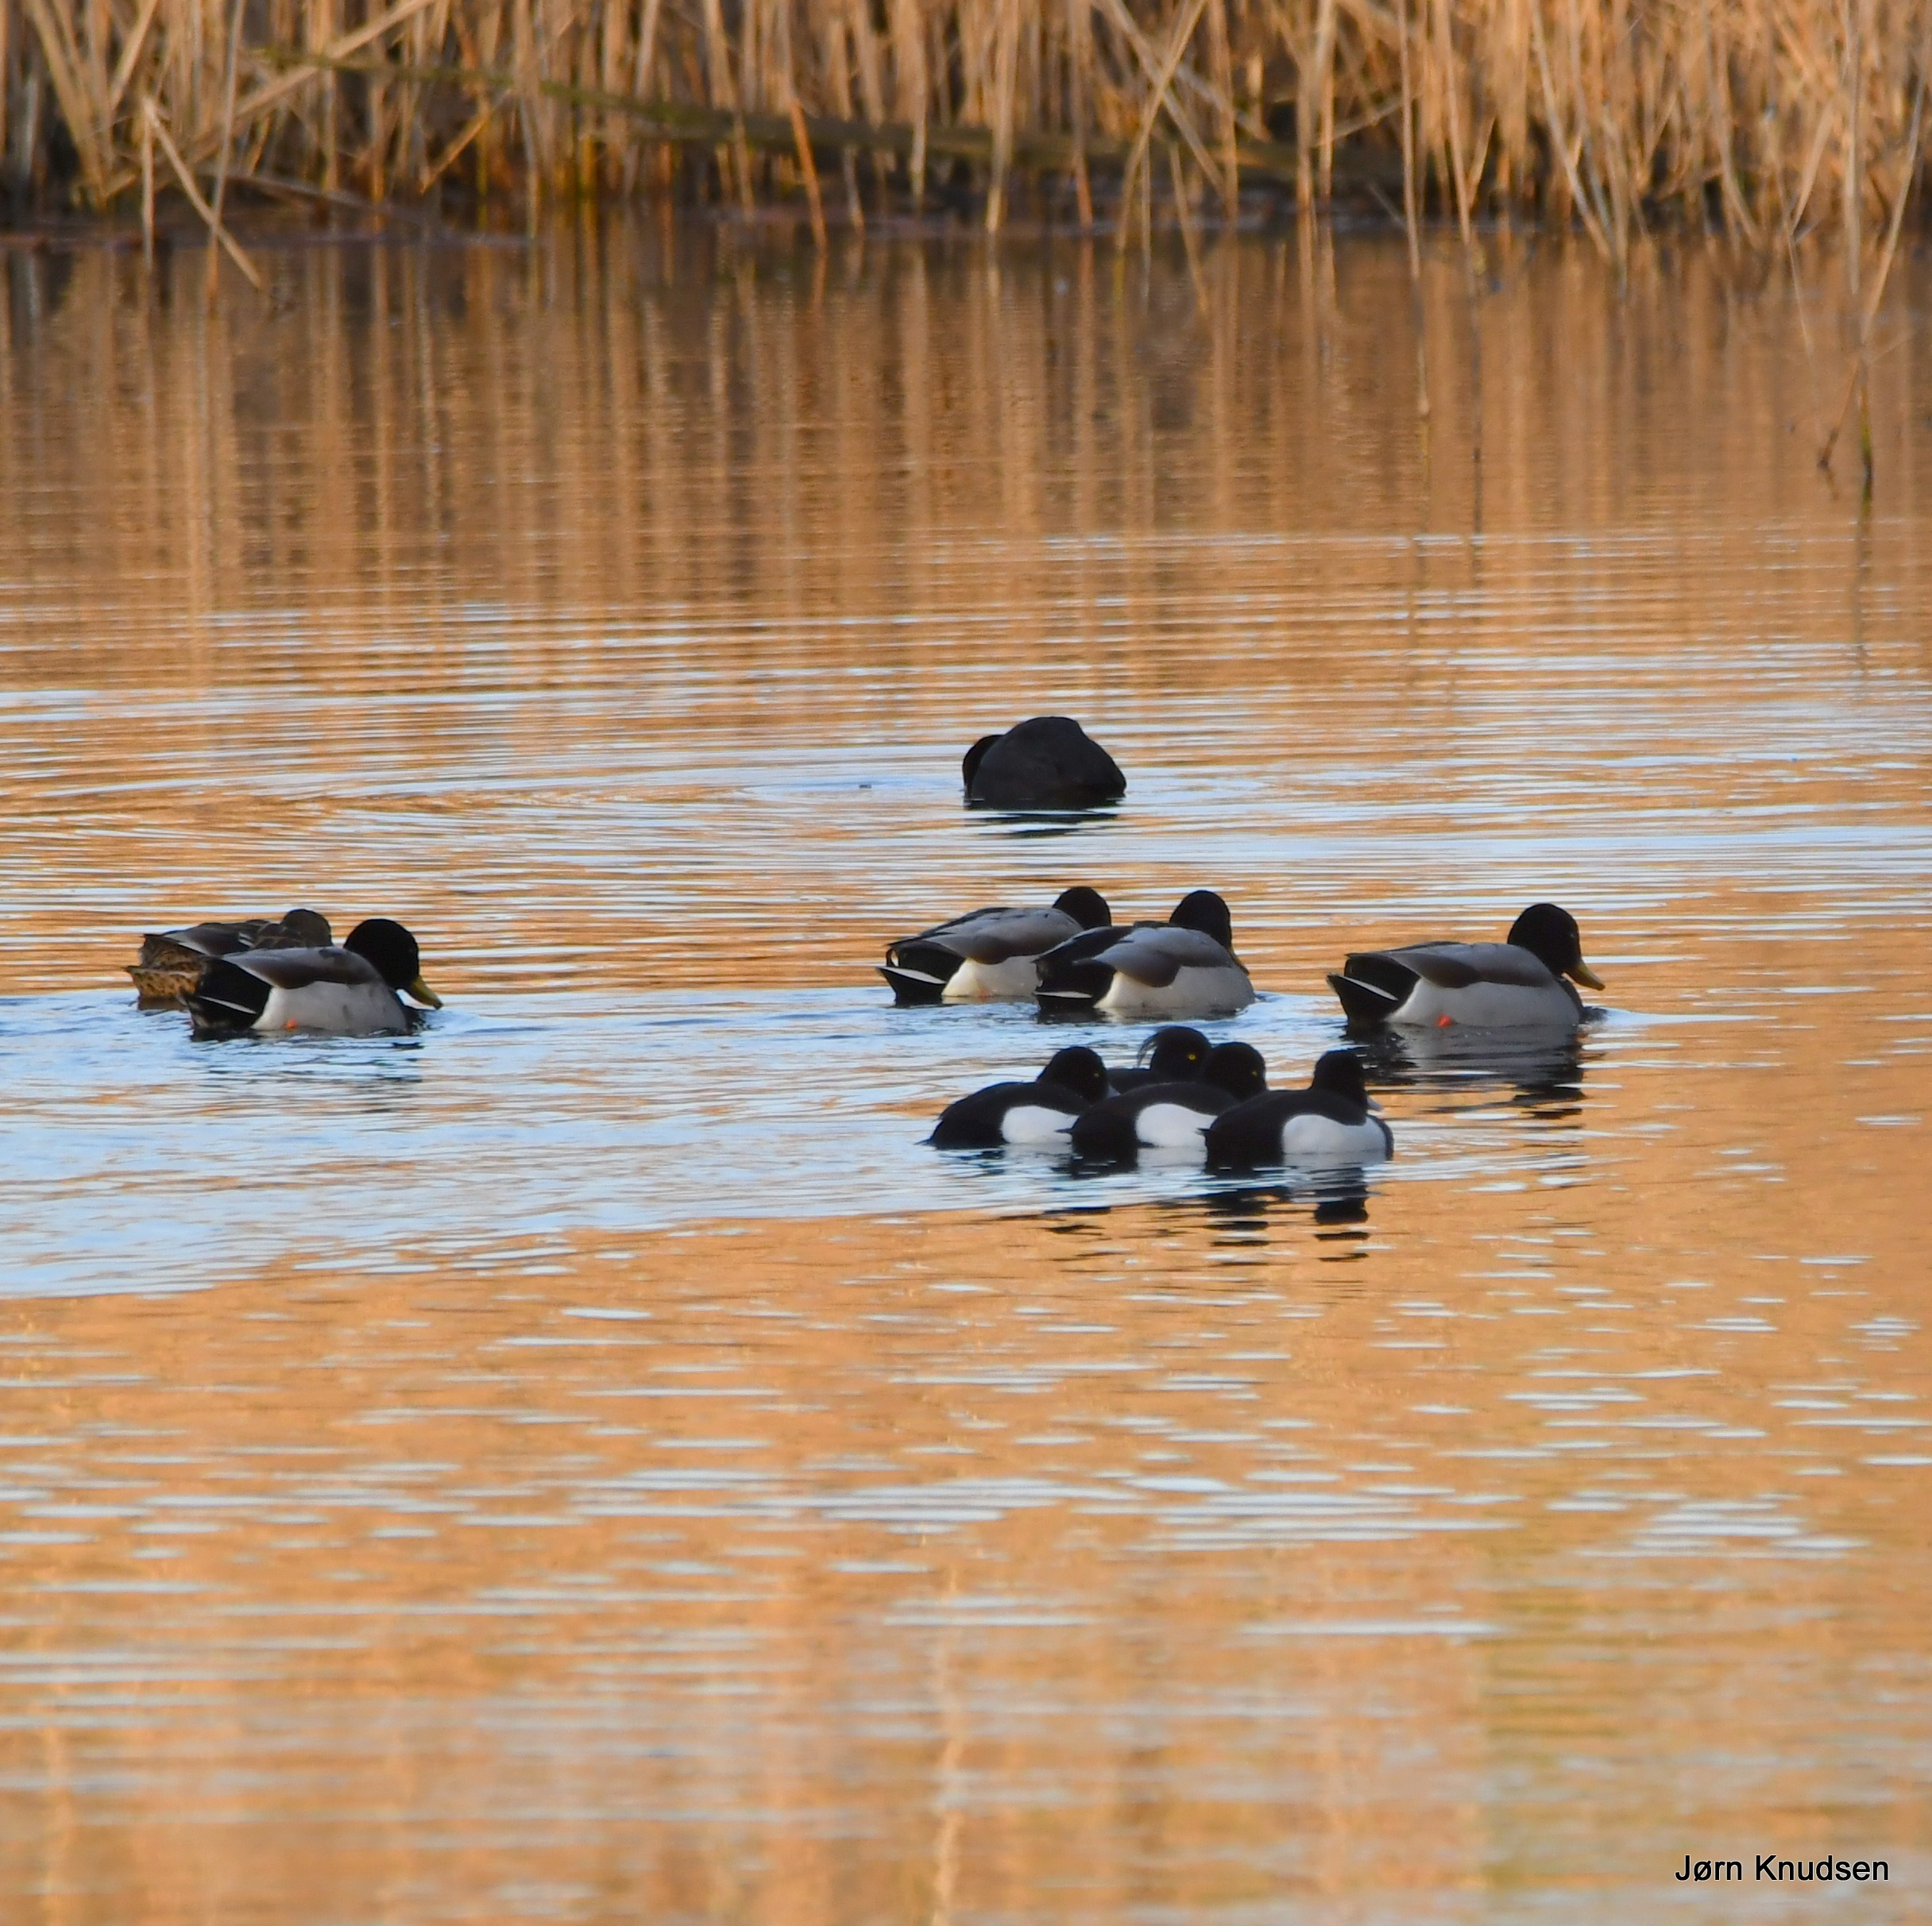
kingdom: Animalia
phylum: Chordata
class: Aves
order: Anseriformes
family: Anatidae
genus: Aythya
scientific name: Aythya fuligula
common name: Troldand
